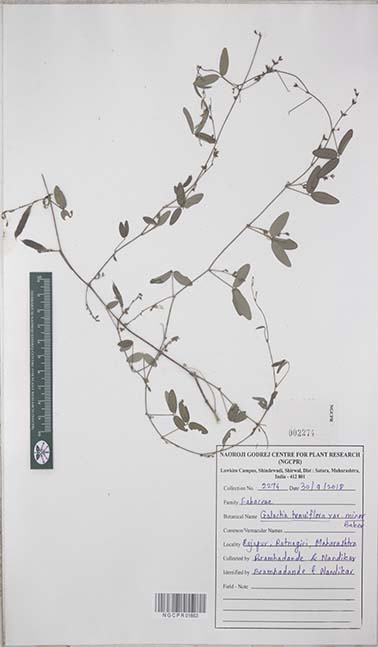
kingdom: Plantae
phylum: Tracheophyta
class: Magnoliopsida
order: Fabales
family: Fabaceae
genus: Galactia
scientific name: Galactia striata
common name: Florida hammock milkpea
